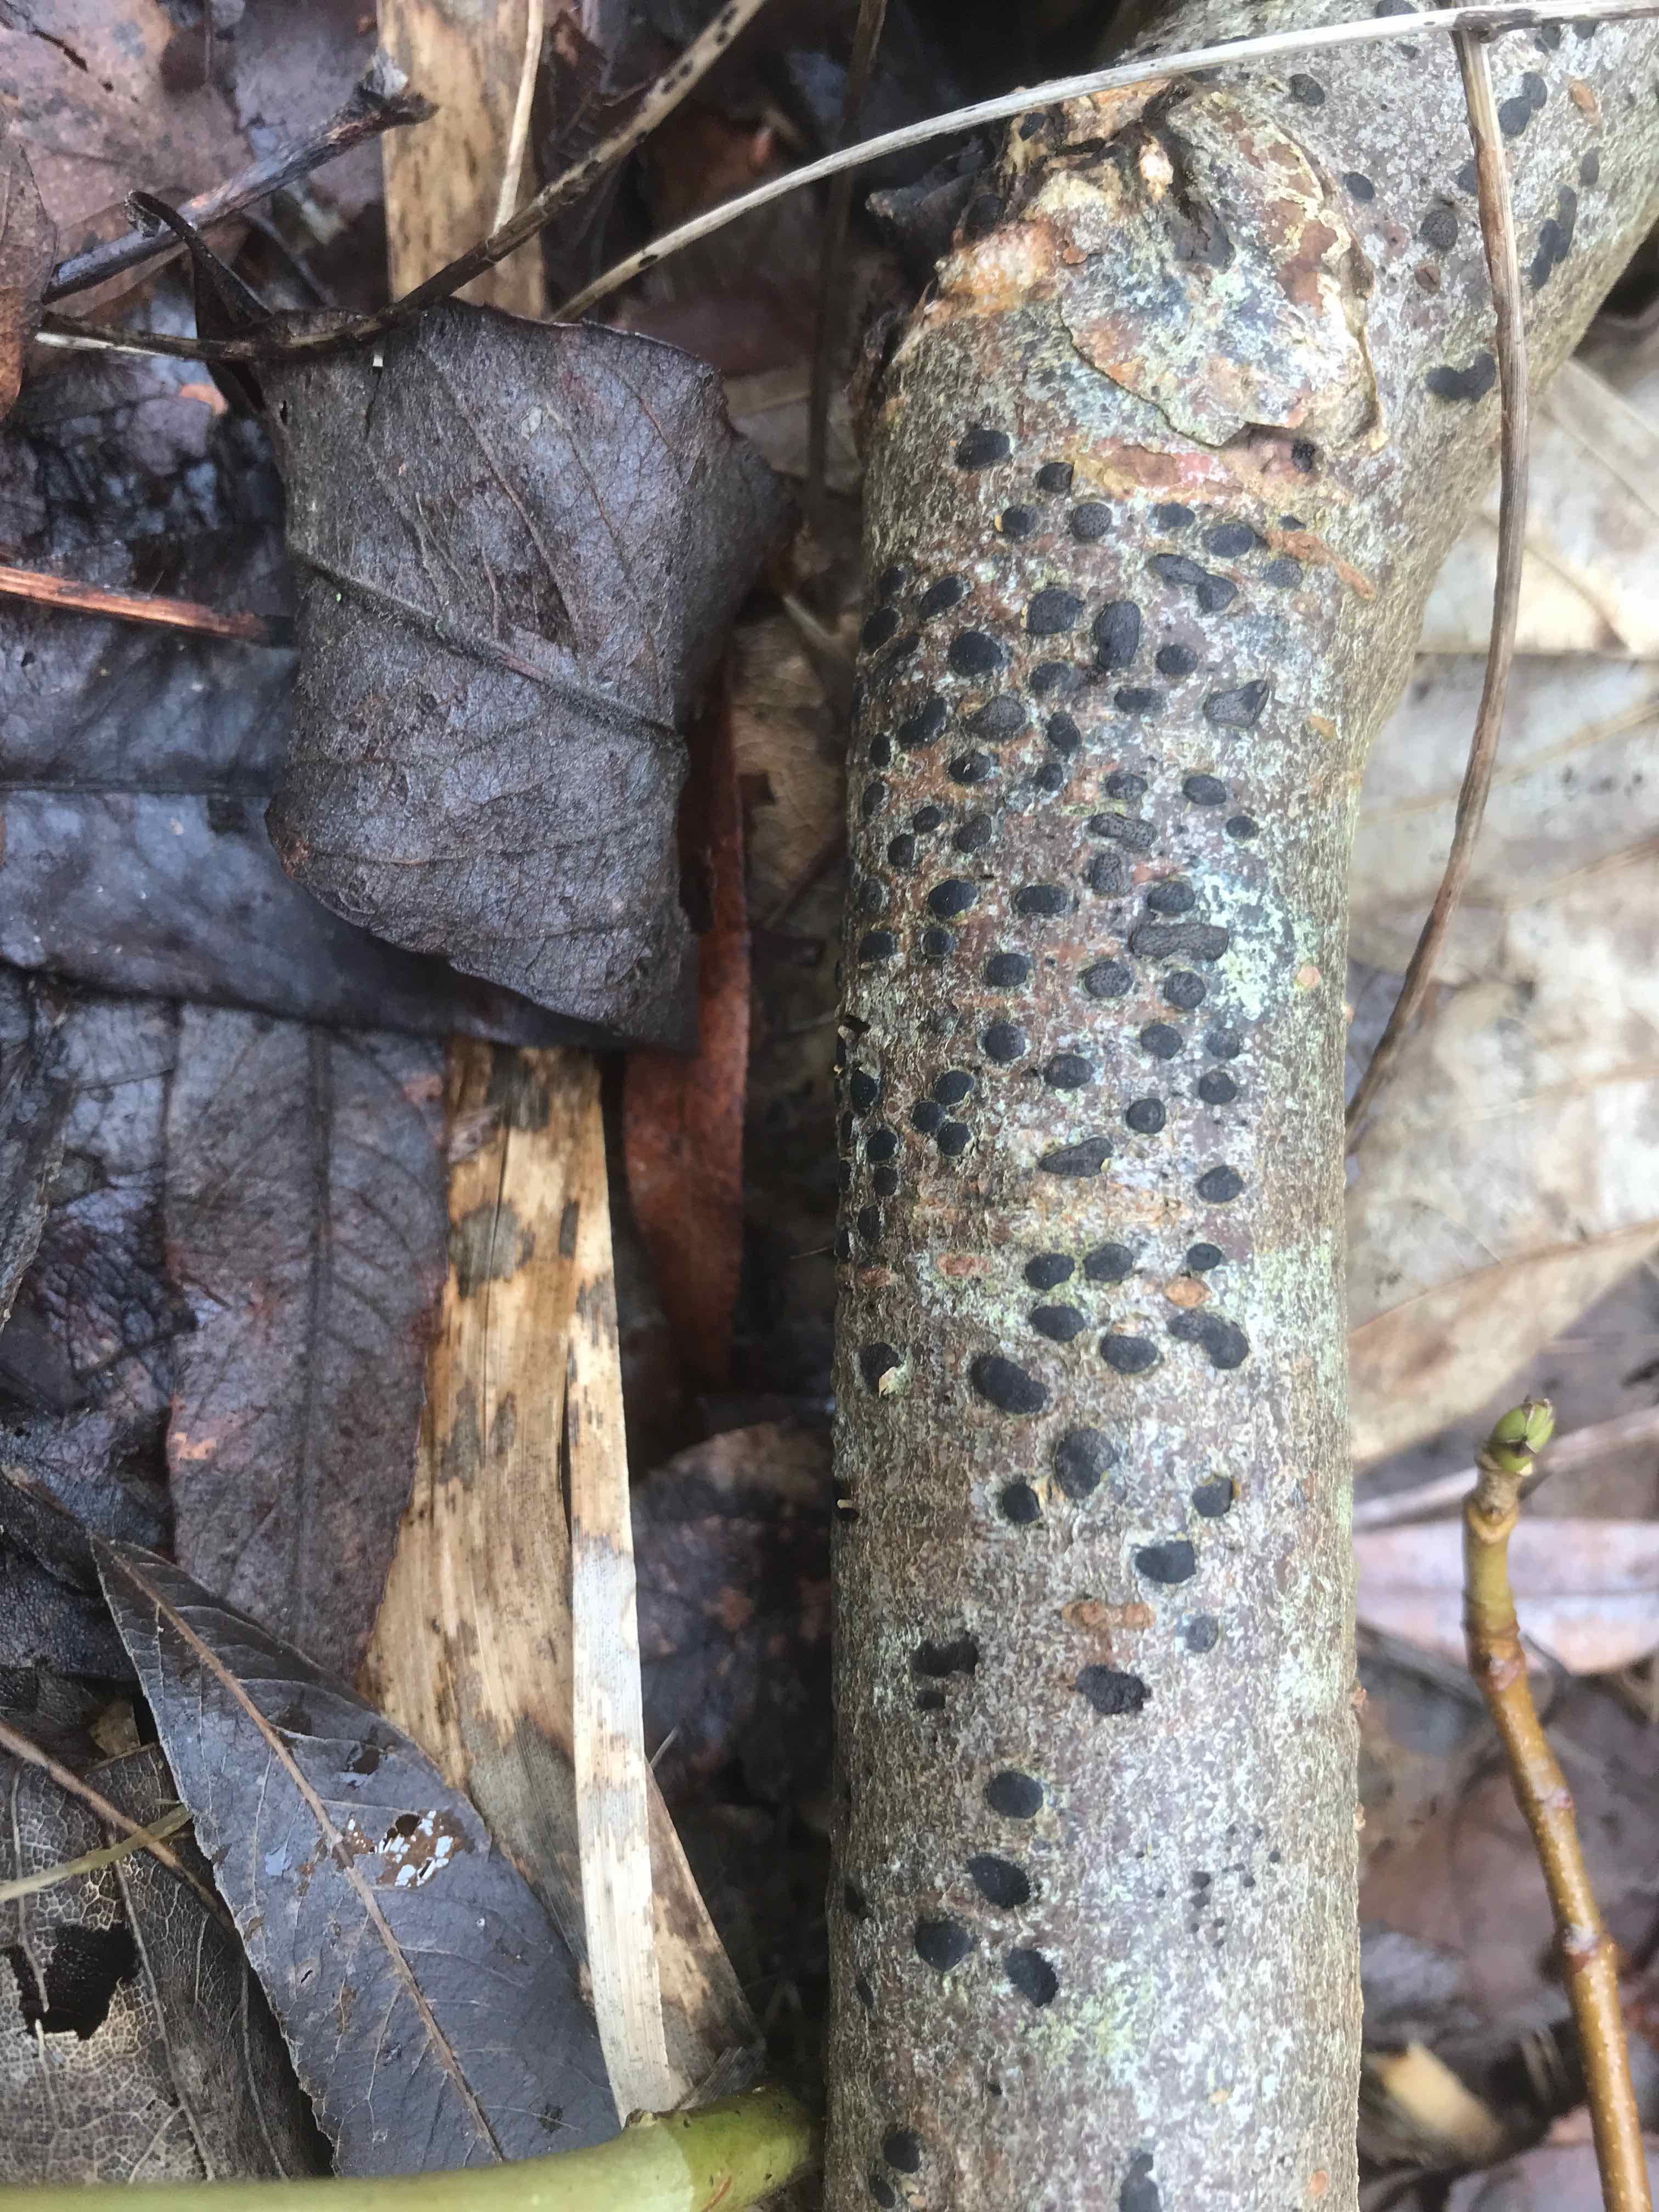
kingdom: Fungi
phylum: Ascomycota
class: Sordariomycetes
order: Xylariales
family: Diatrypaceae
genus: Diatrype
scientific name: Diatrype bullata
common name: pile-kulskorpe
